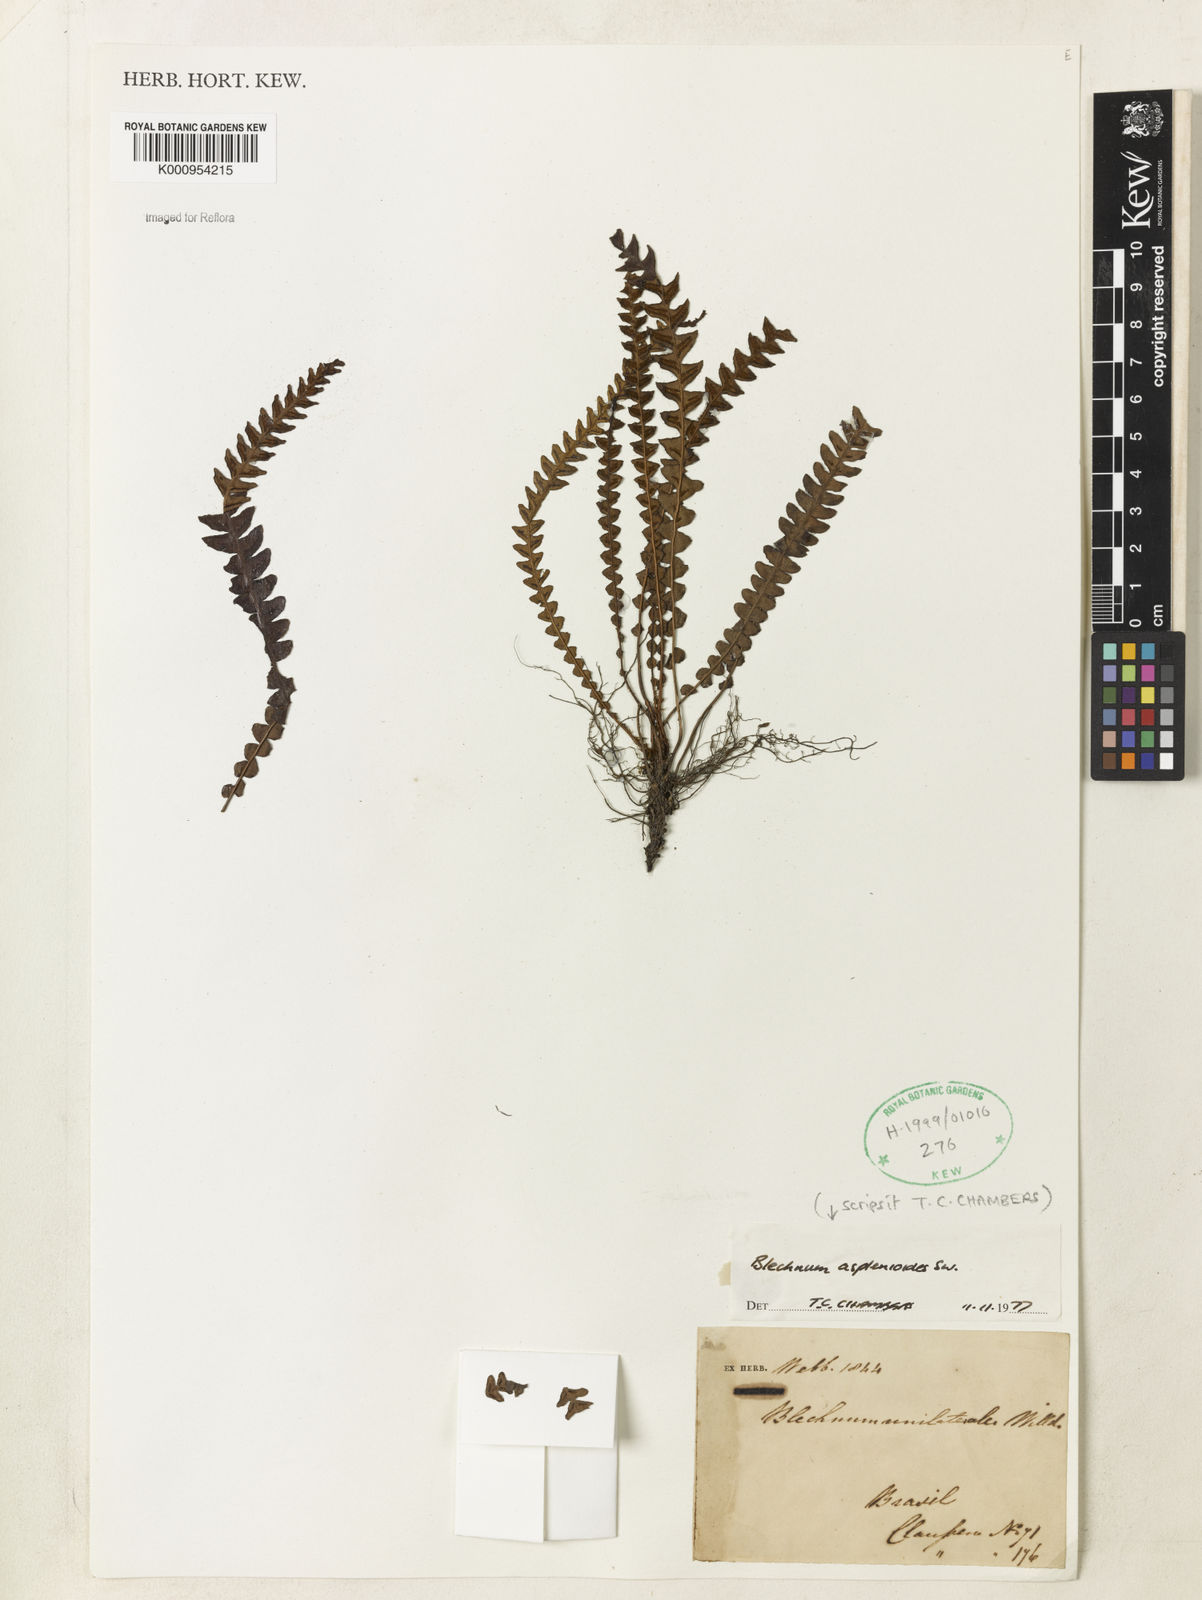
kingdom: Plantae
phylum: Tracheophyta
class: Polypodiopsida
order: Polypodiales
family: Blechnaceae
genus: Blechnum
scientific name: Blechnum asplenioides
